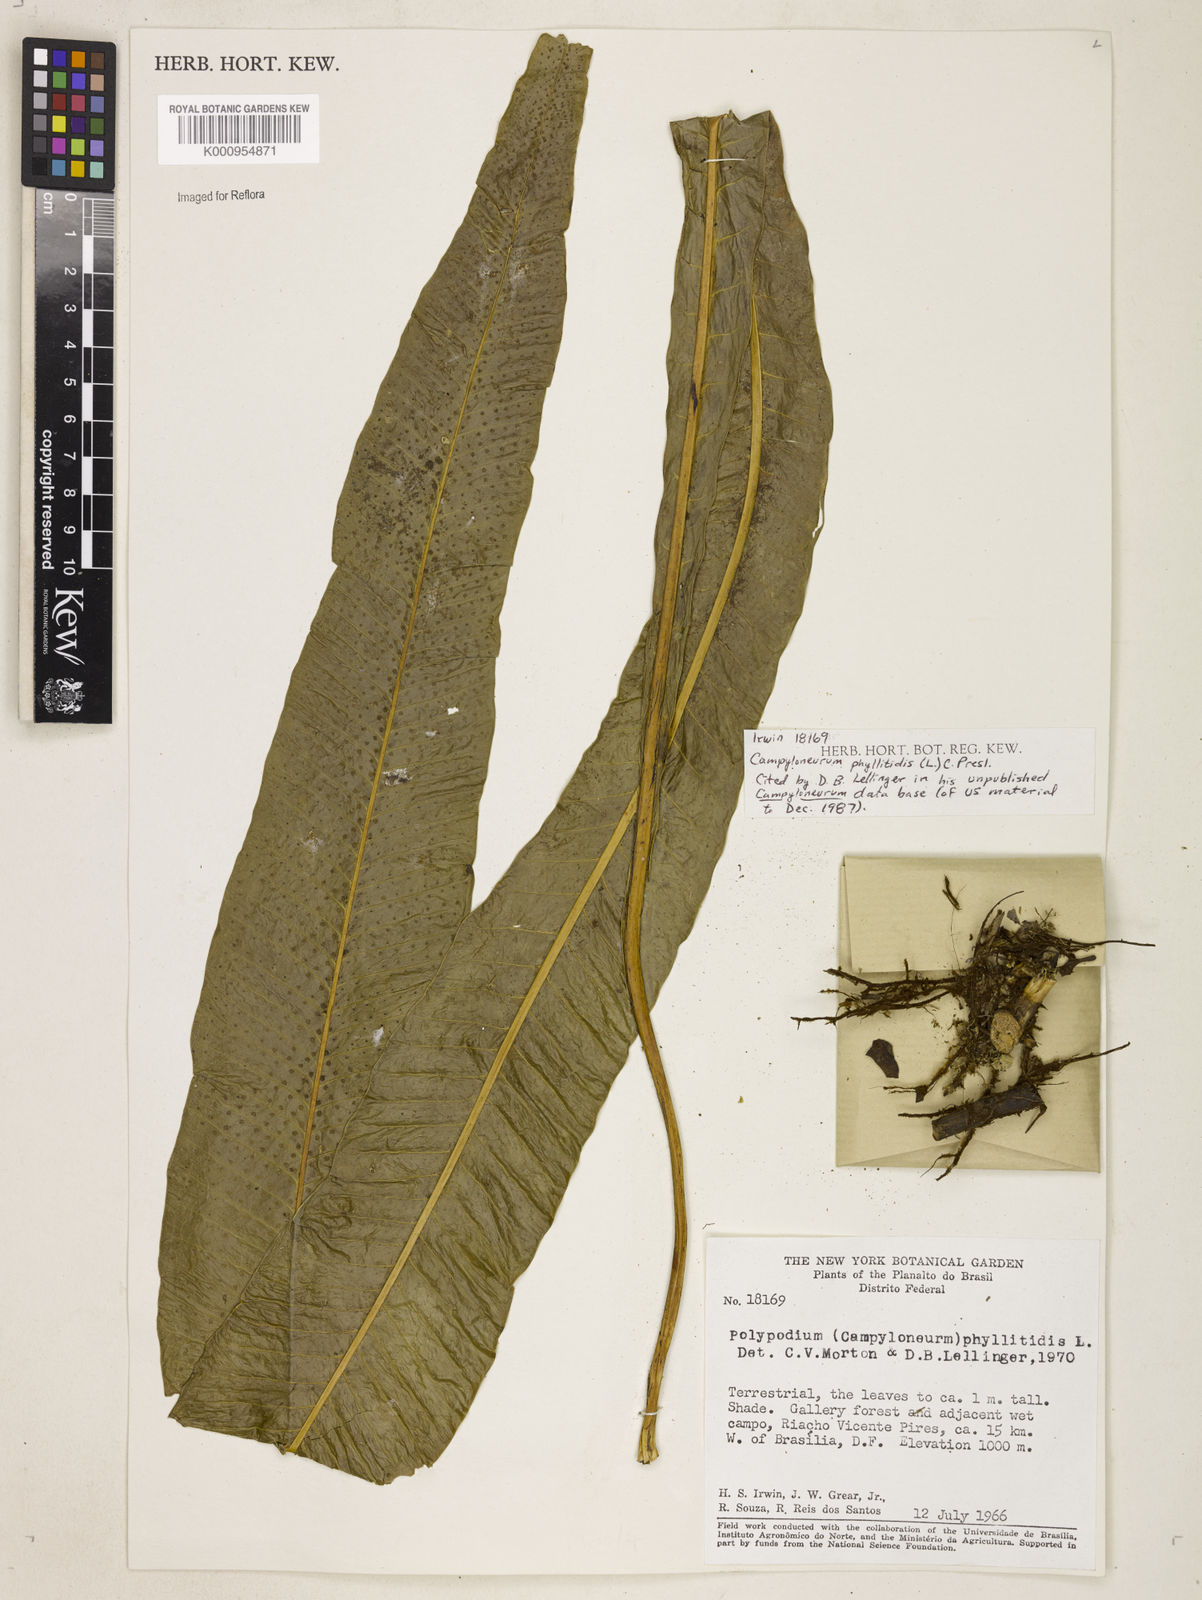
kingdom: Plantae
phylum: Tracheophyta
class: Polypodiopsida
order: Polypodiales
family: Polypodiaceae
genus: Campyloneurum
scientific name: Campyloneurum phyllitidis
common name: Cow-tongue fern
